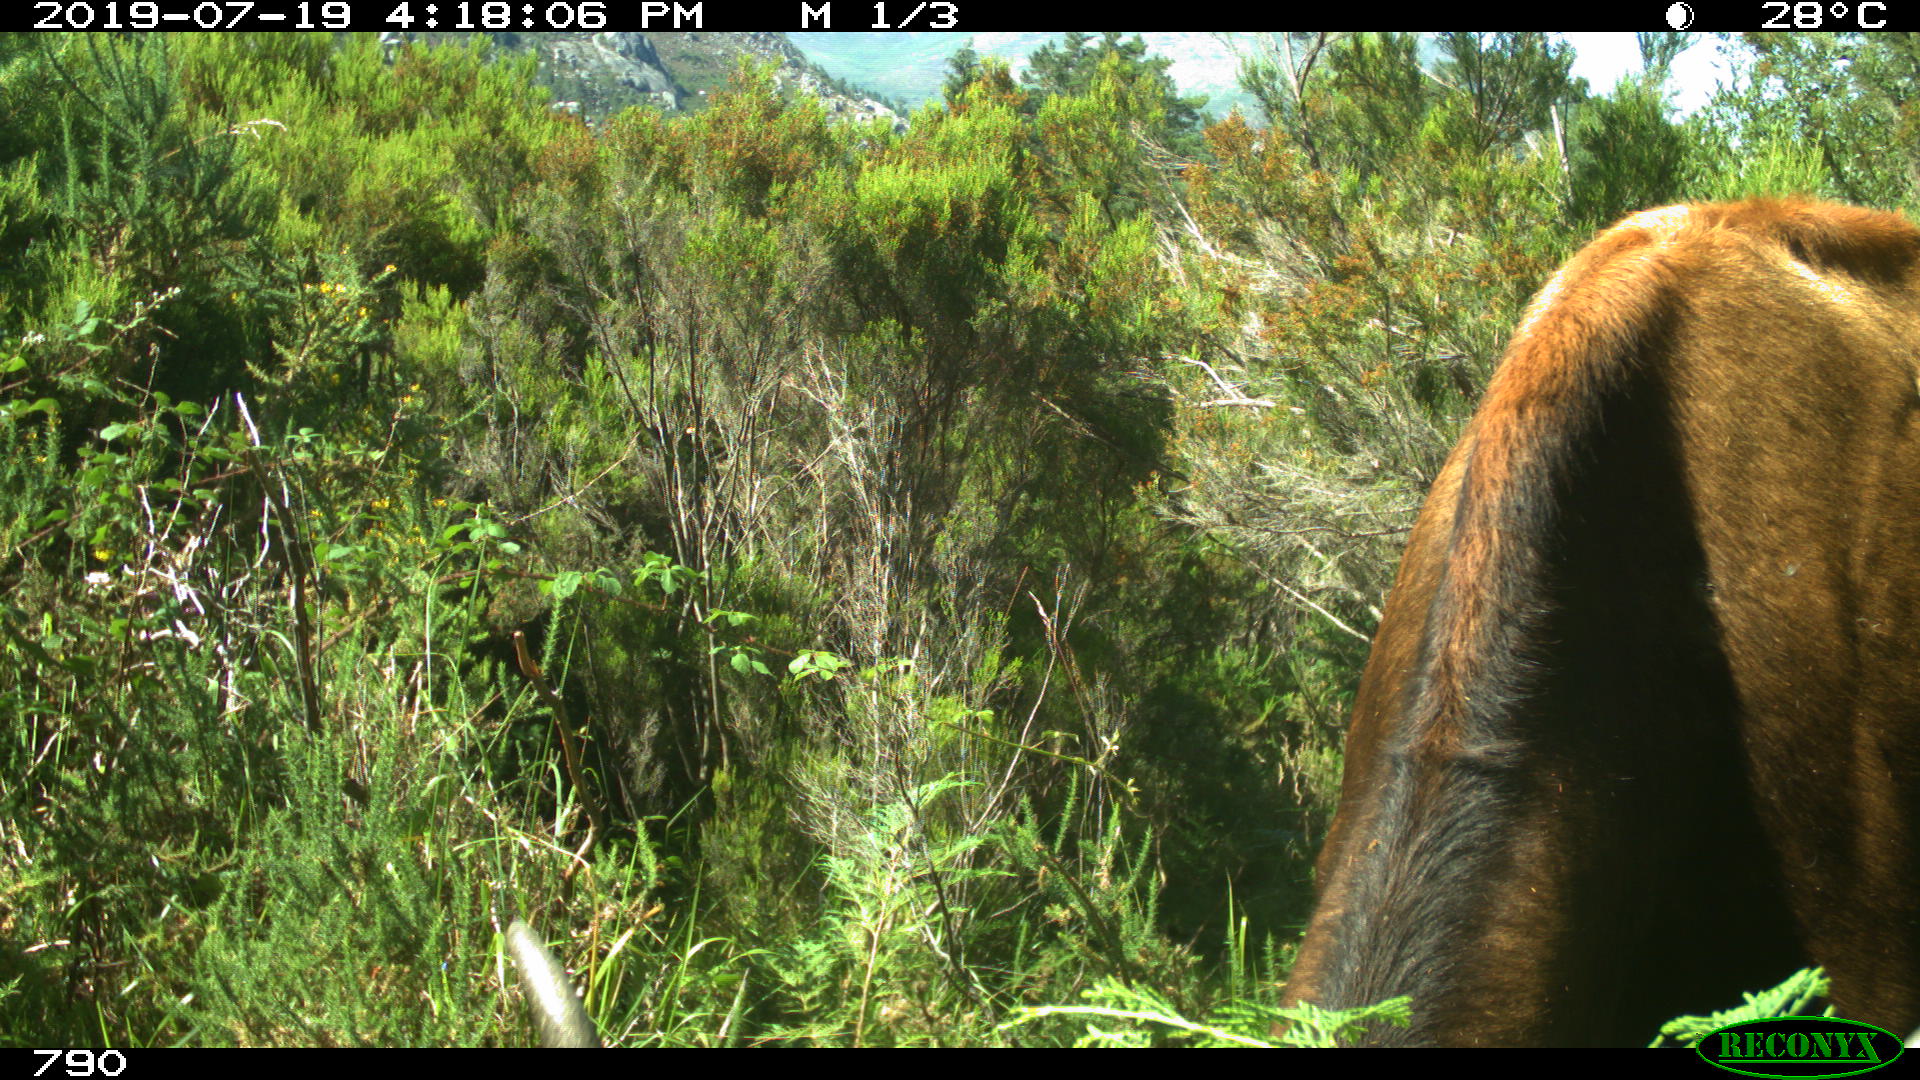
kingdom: Animalia
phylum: Chordata
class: Mammalia
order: Artiodactyla
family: Bovidae
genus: Bos
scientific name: Bos taurus
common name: Domesticated cattle
